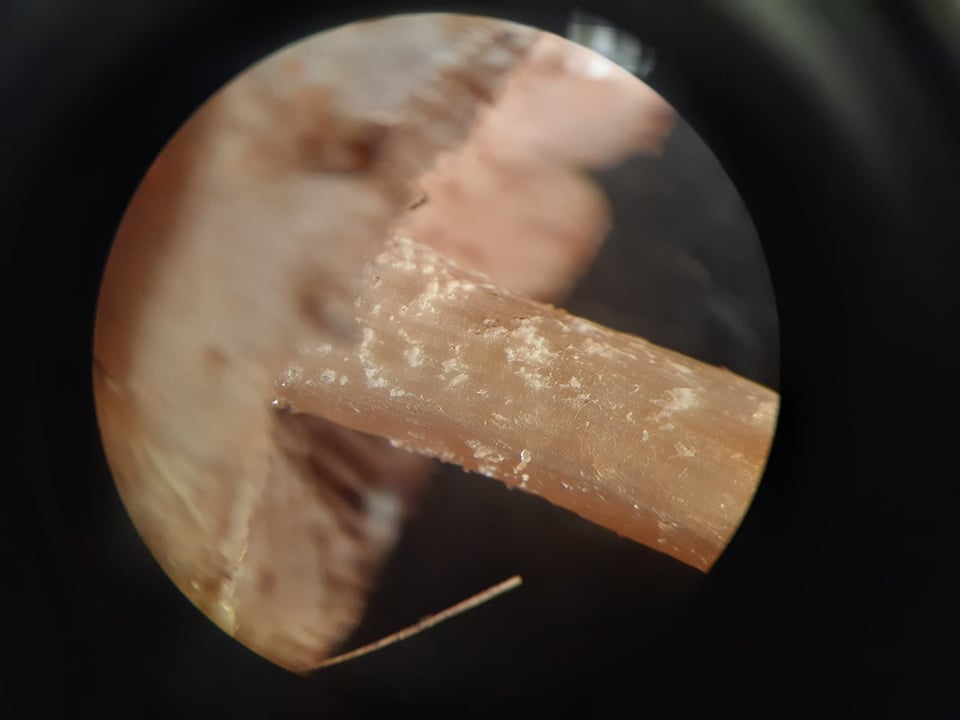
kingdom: Fungi
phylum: Basidiomycota
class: Agaricomycetes
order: Agaricales
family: Hymenogastraceae
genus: Hebeloma
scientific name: Hebeloma
